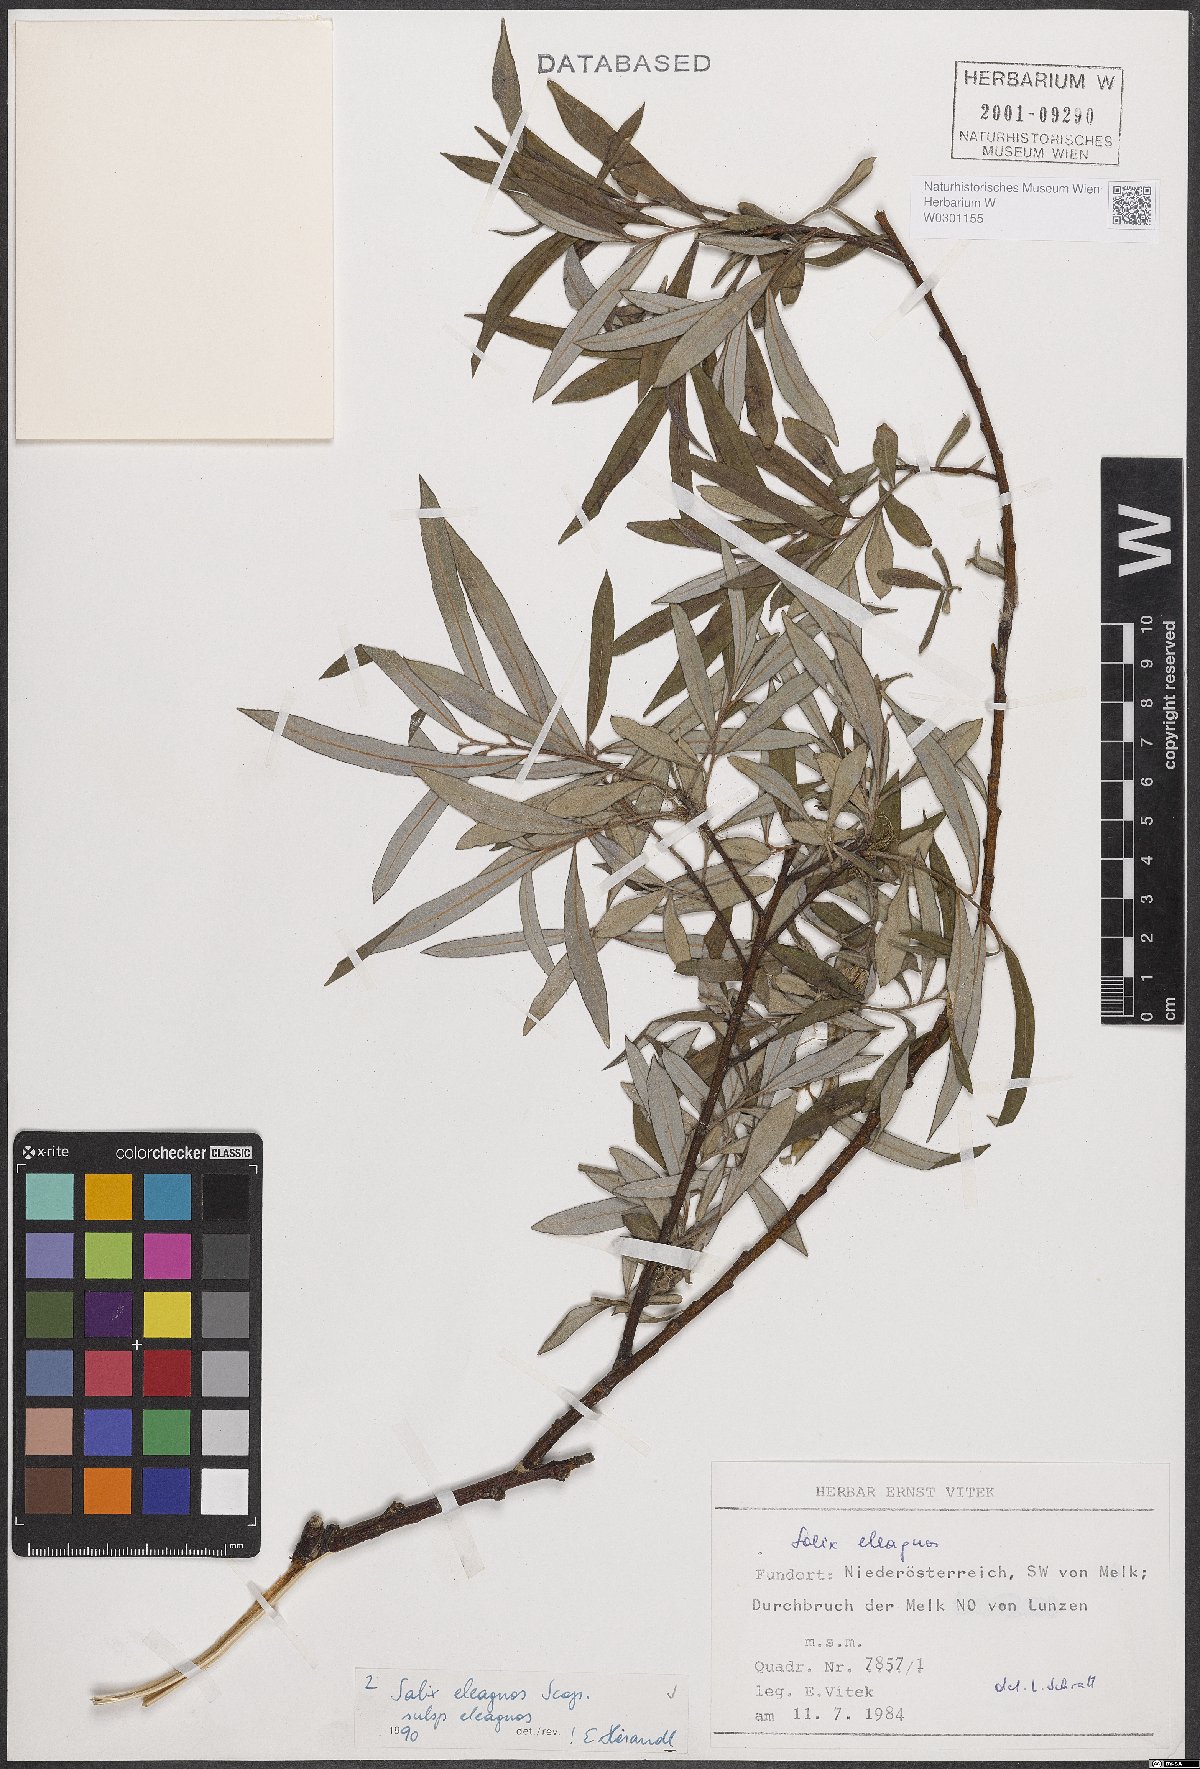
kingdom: Plantae
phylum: Tracheophyta
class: Magnoliopsida
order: Malpighiales
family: Salicaceae
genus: Salix
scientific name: Salix eleagnos
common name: Elaeagnus willow
